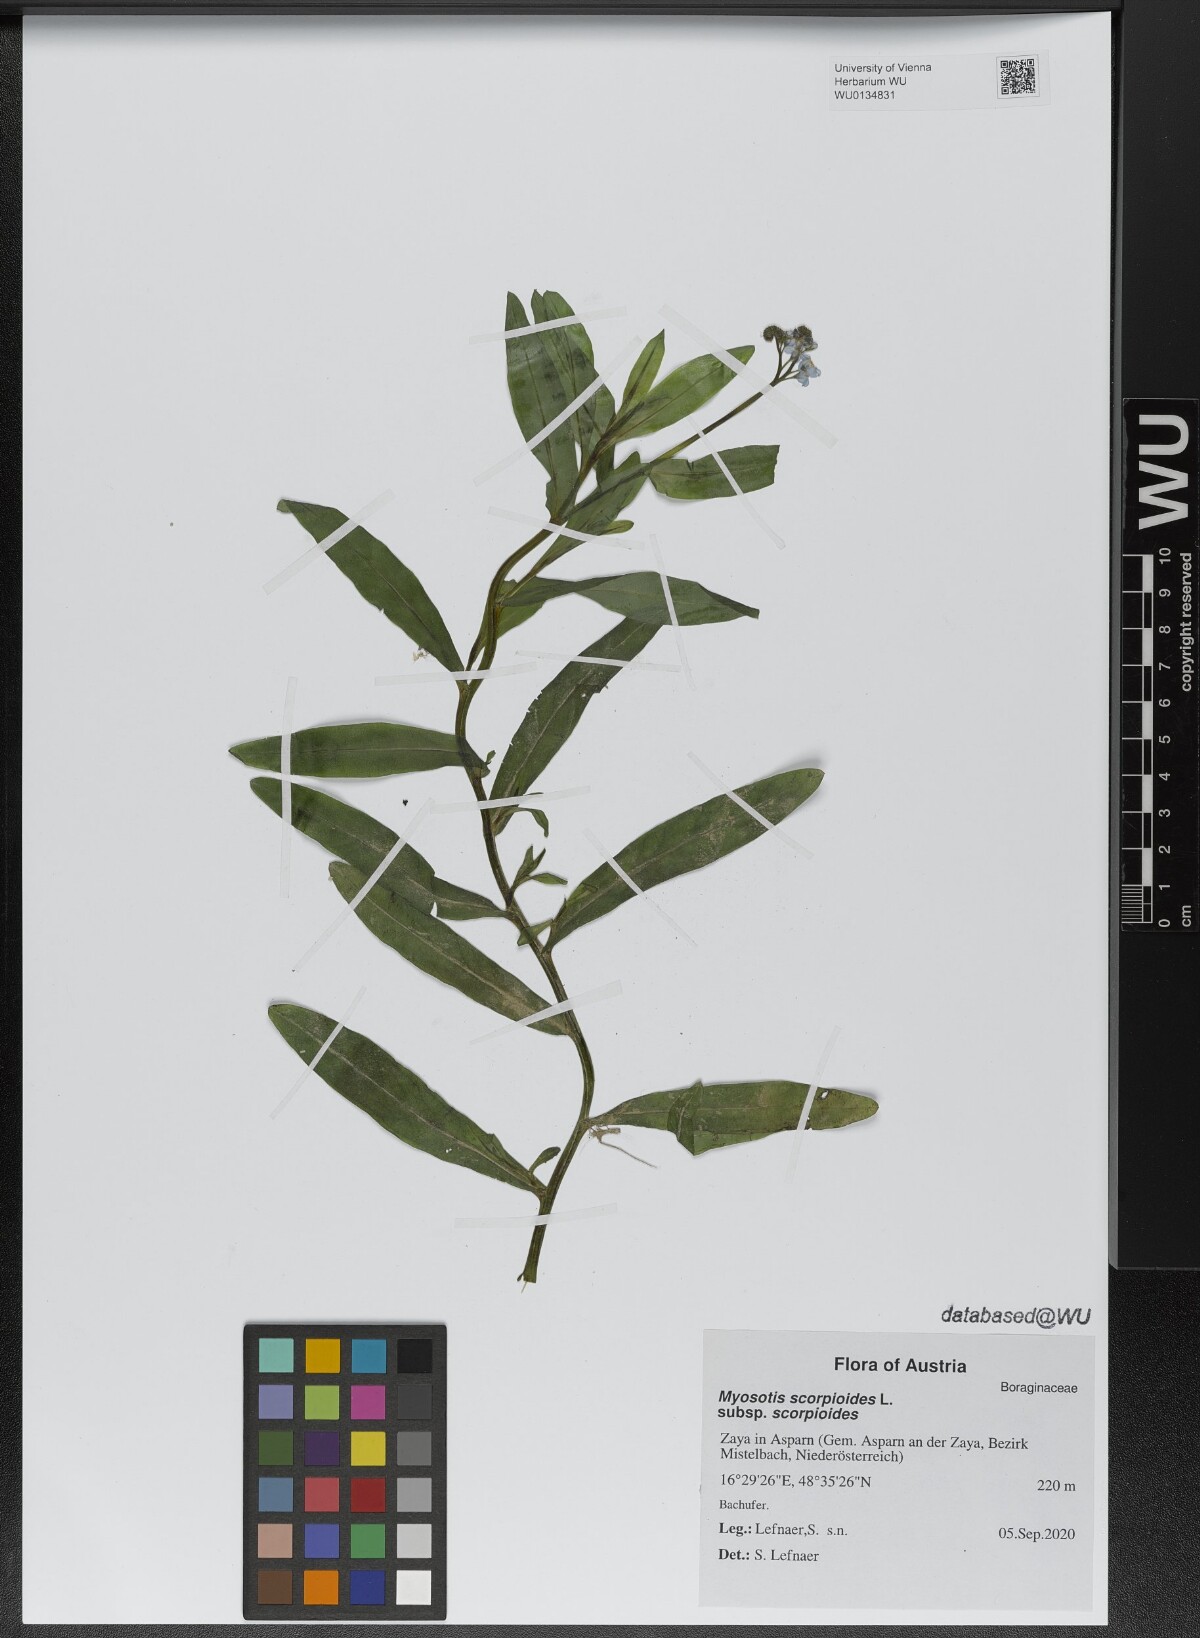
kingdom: Plantae
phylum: Tracheophyta
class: Magnoliopsida
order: Boraginales
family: Boraginaceae
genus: Myosotis
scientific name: Myosotis scorpioides
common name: Water forget-me-not
